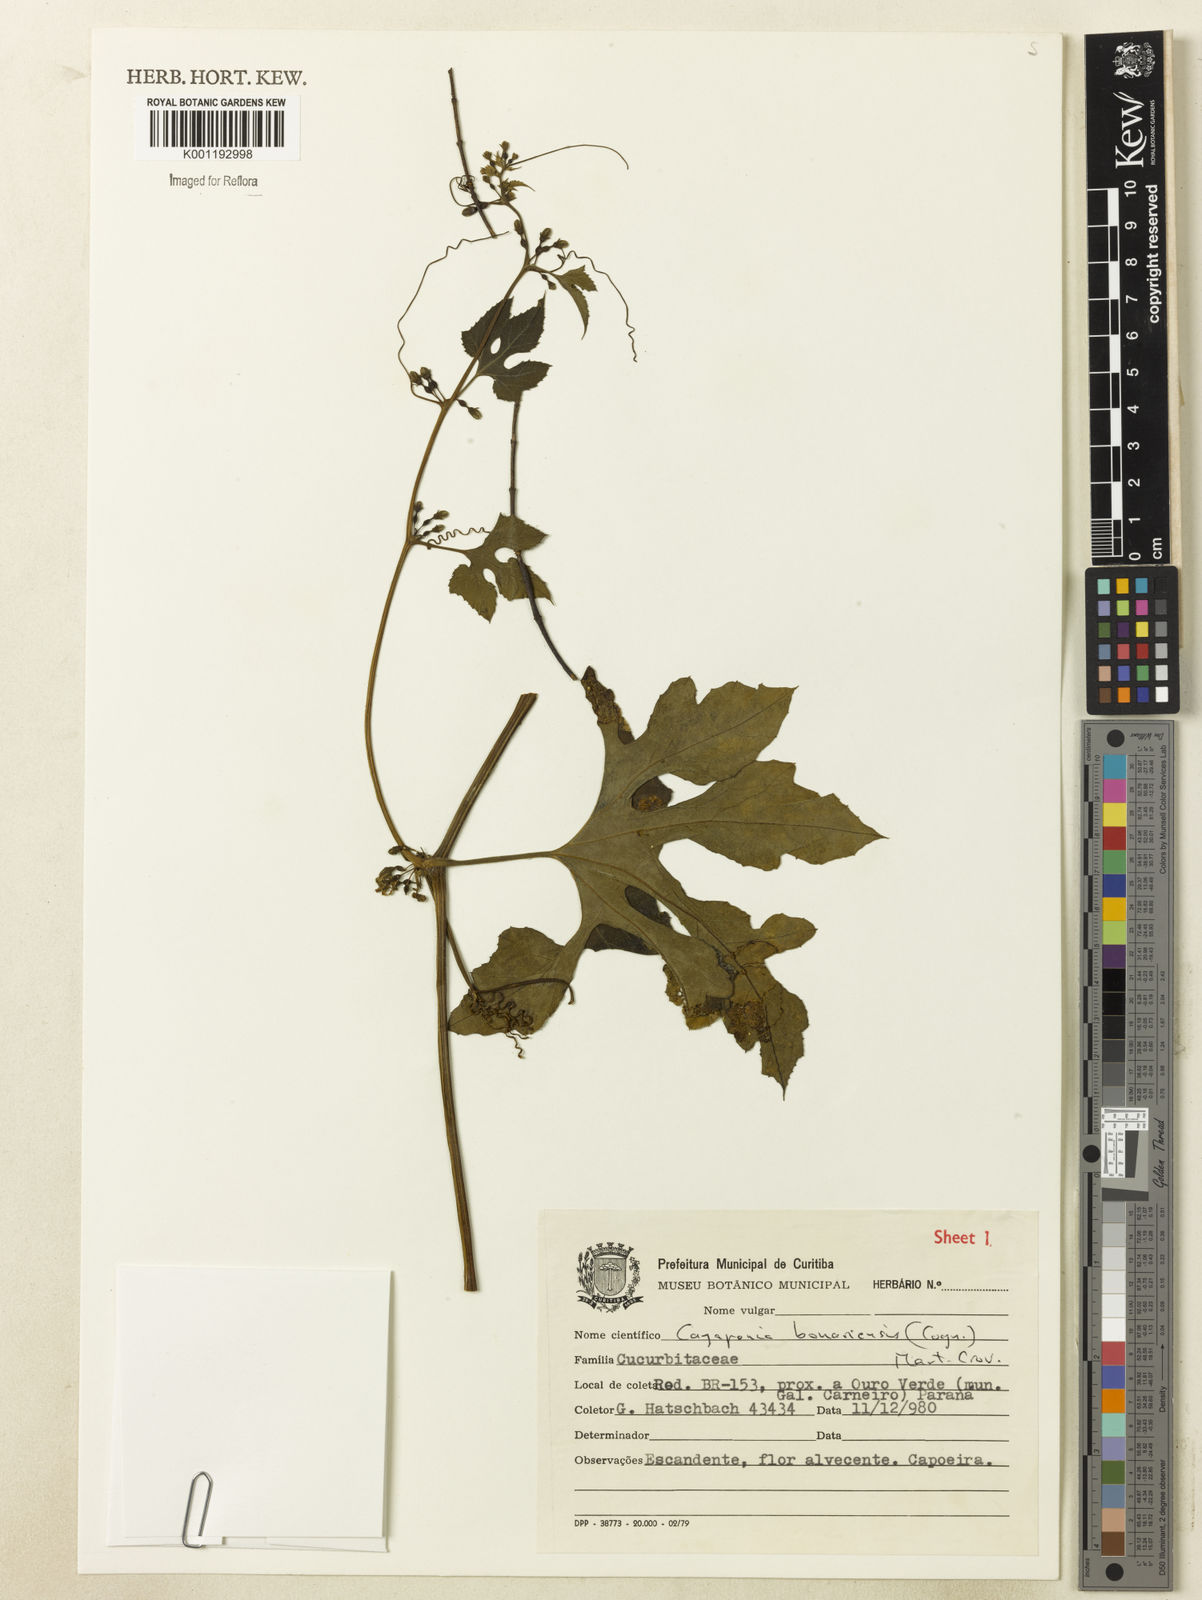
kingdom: Plantae
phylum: Tracheophyta
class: Magnoliopsida
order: Cucurbitales
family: Cucurbitaceae
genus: Cayaponia
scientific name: Cayaponia bonariensis
